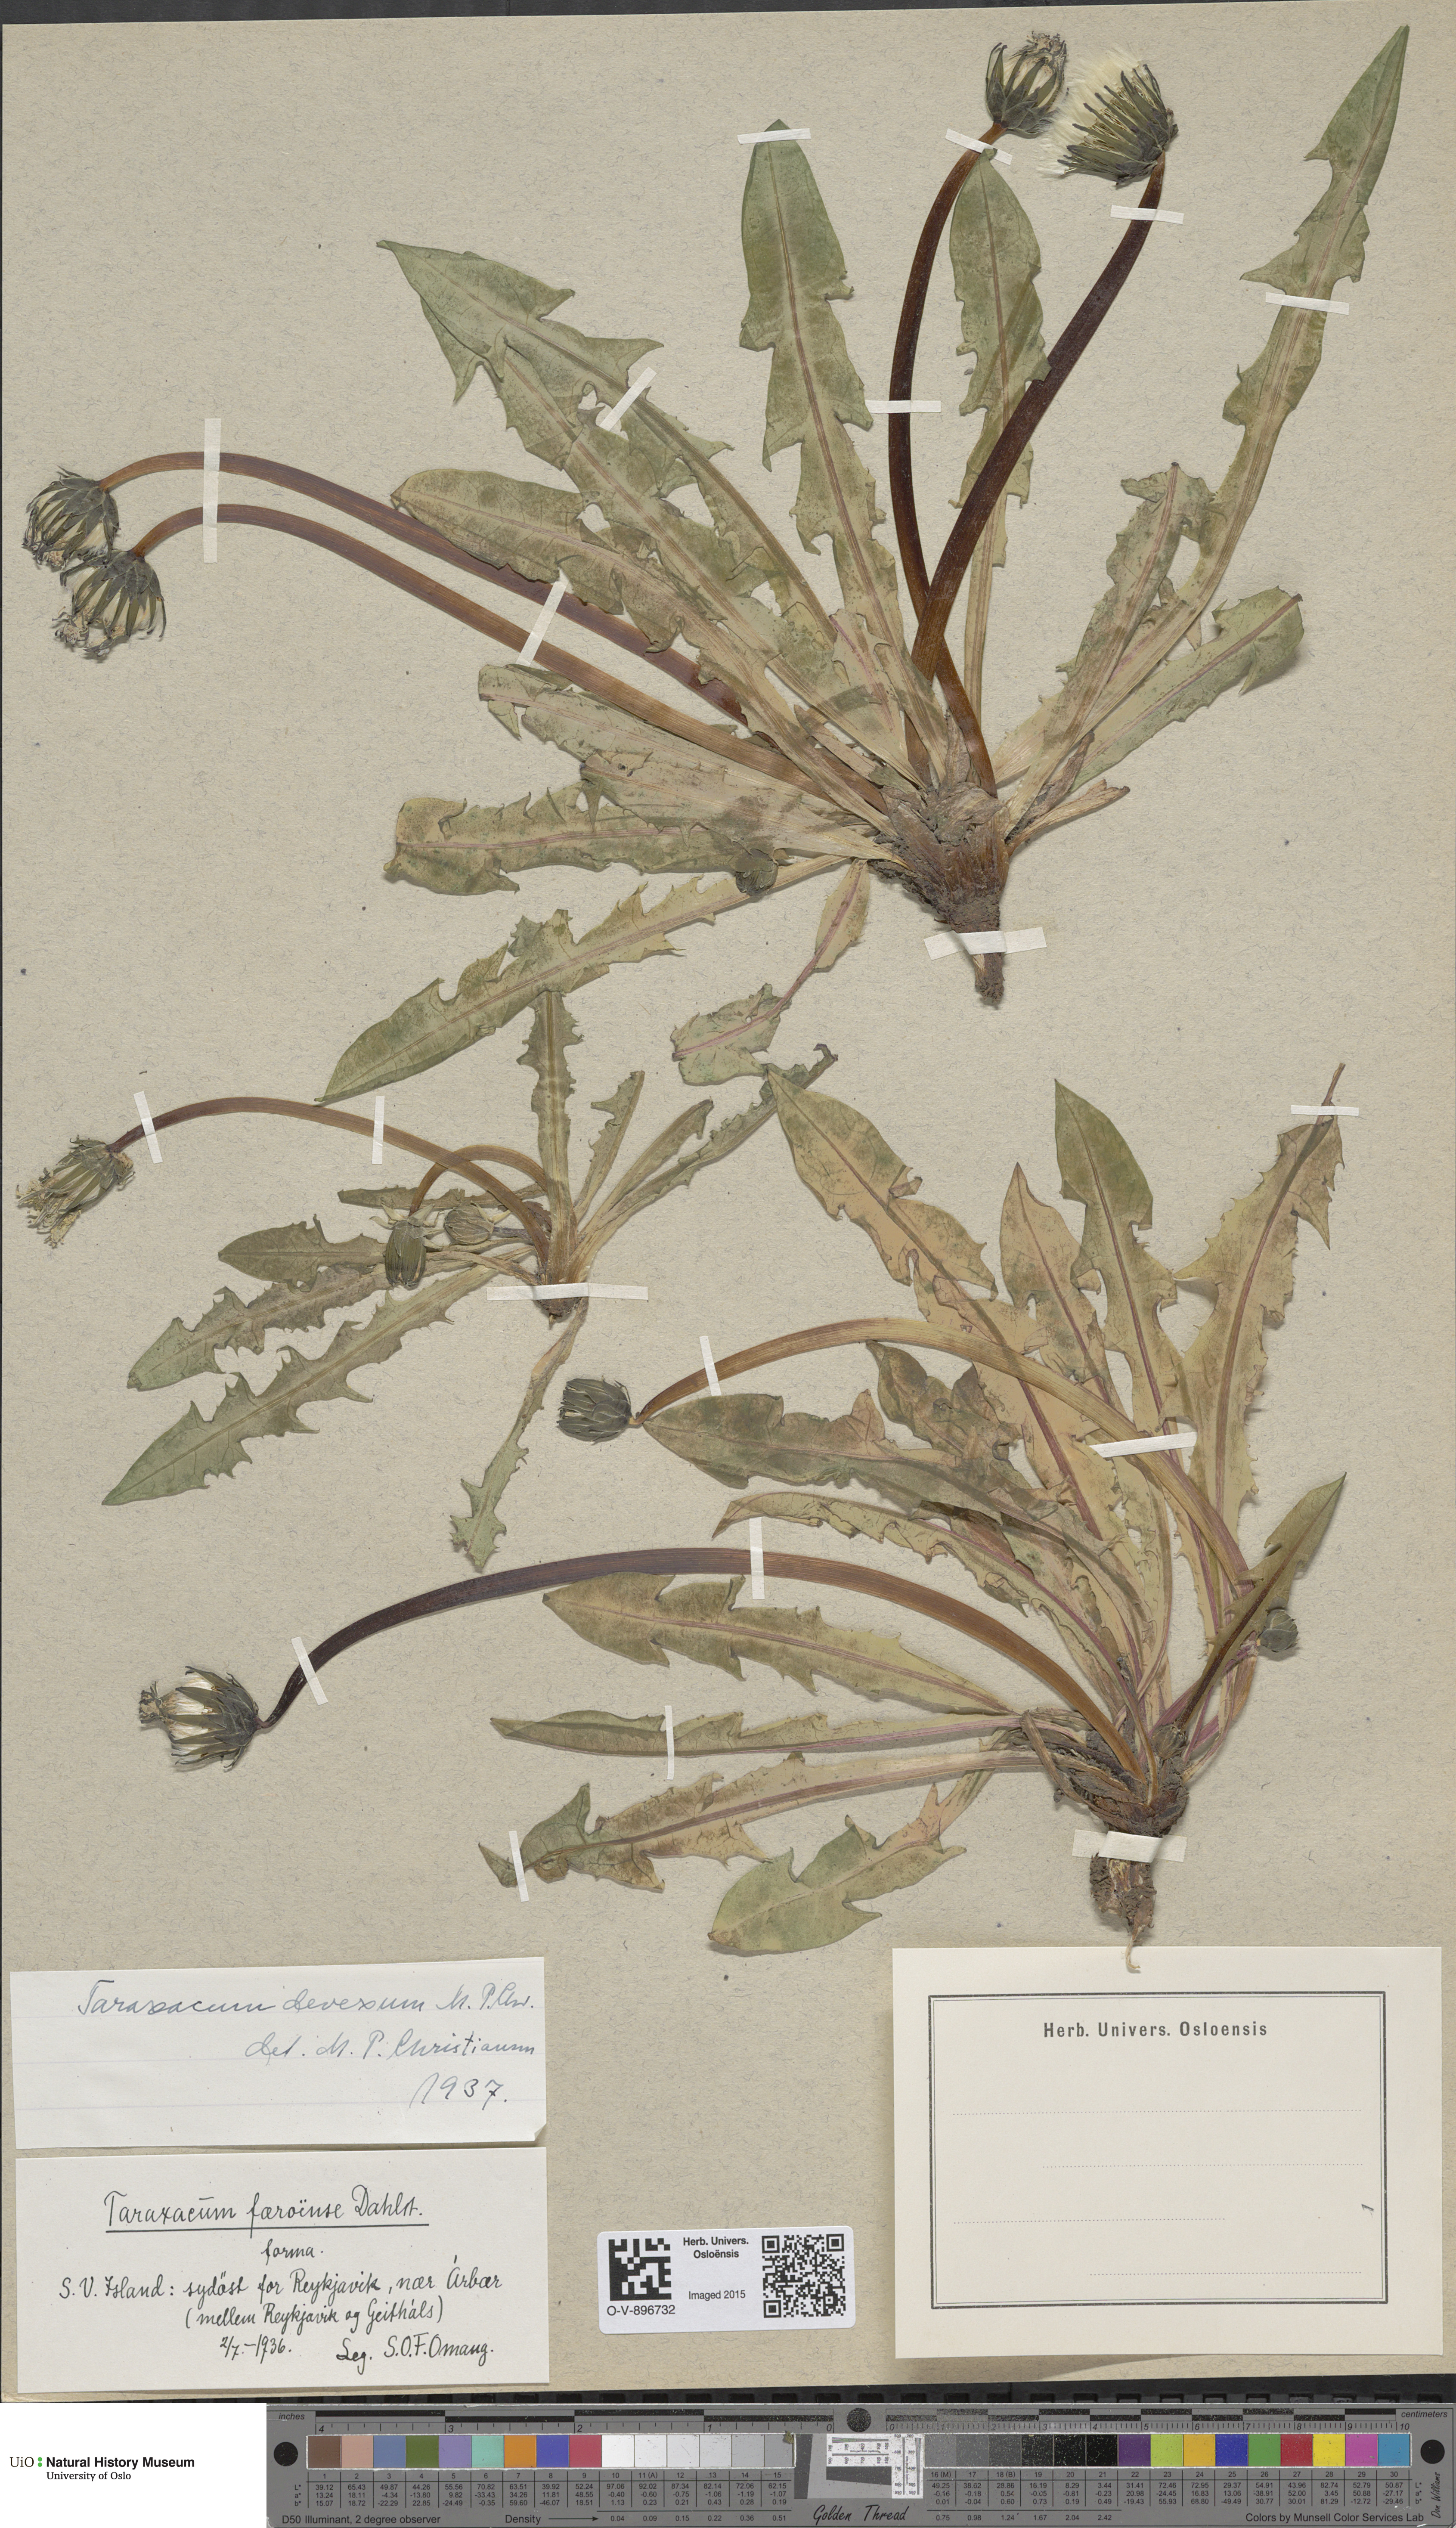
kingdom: Plantae
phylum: Tracheophyta
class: Magnoliopsida
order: Asterales
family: Asteraceae
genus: Taraxacum
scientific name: Taraxacum devexum
